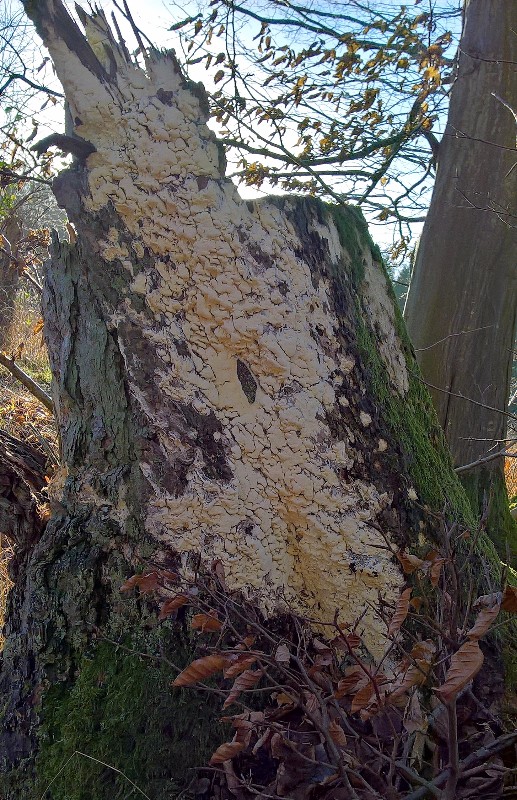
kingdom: Fungi
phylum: Basidiomycota
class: Agaricomycetes
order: Polyporales
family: Fomitopsidaceae
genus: Daedalea
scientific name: Daedalea xantha
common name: gul sejporesvamp
